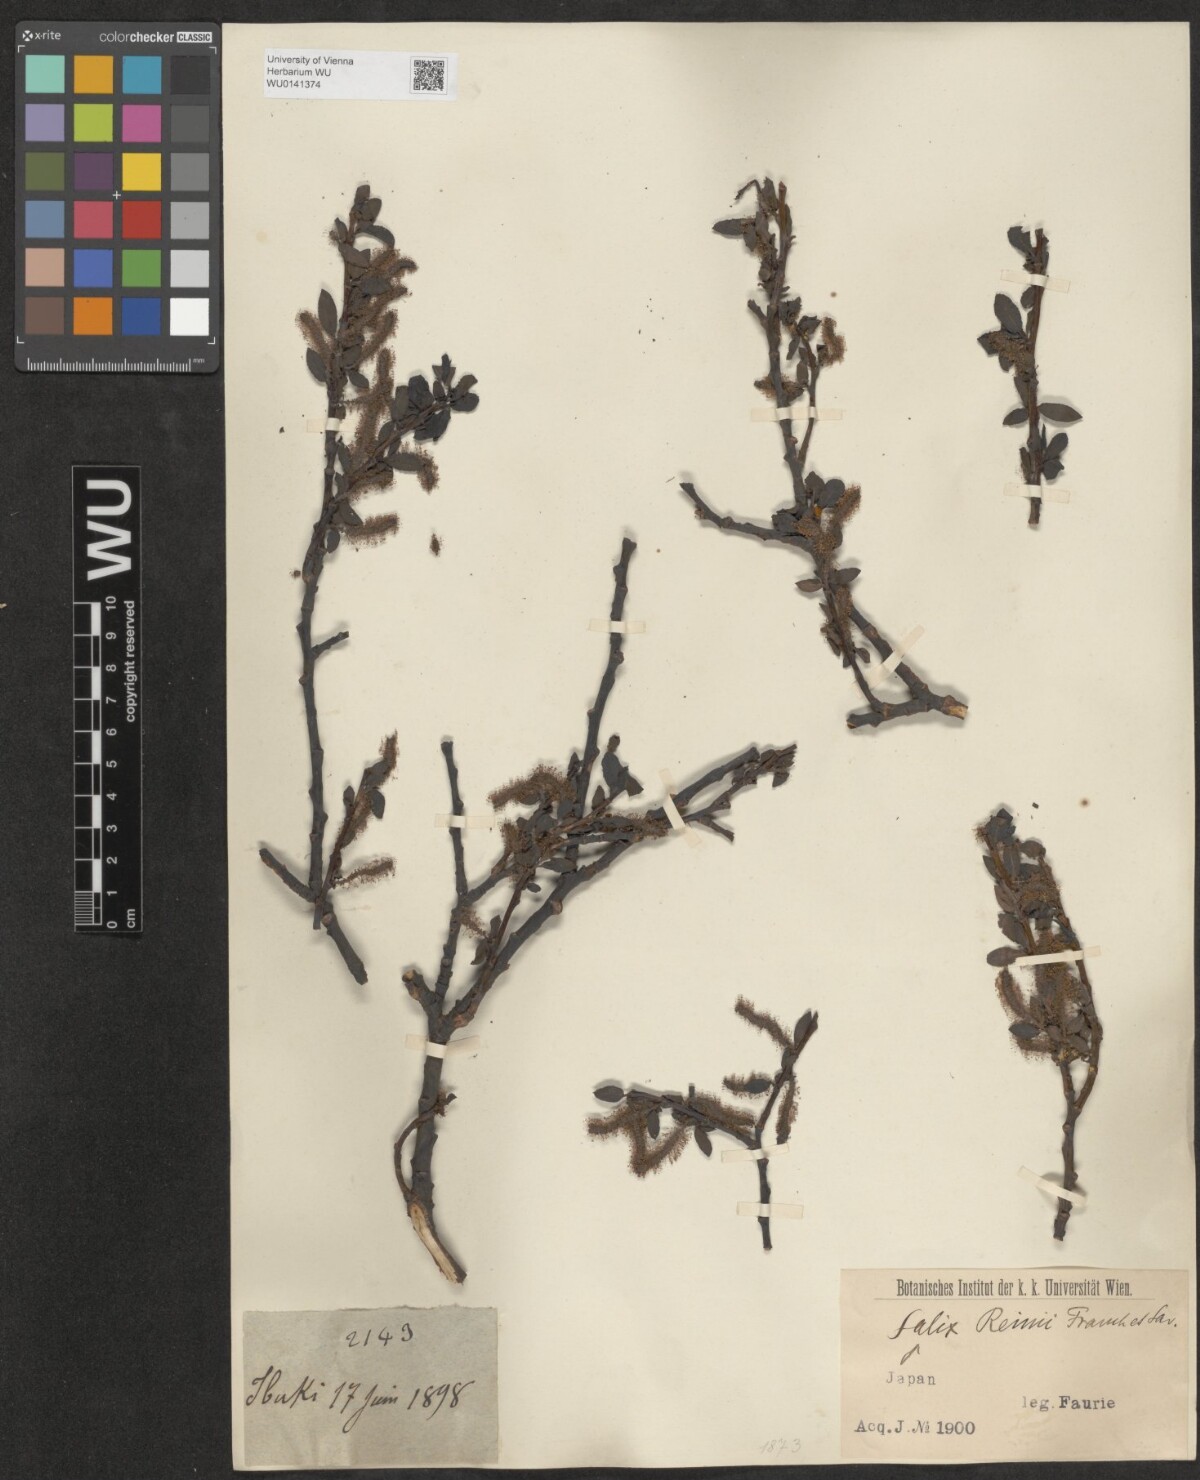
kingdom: Plantae
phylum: Tracheophyta
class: Magnoliopsida
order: Malpighiales
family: Salicaceae
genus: Salix
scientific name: Salix reinii
